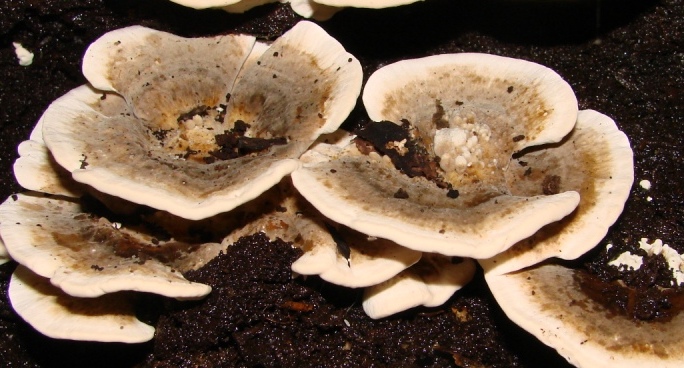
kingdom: Fungi
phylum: Basidiomycota
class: Agaricomycetes
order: Polyporales
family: Phanerochaetaceae
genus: Bjerkandera
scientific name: Bjerkandera adusta
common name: sveden sodporesvamp
